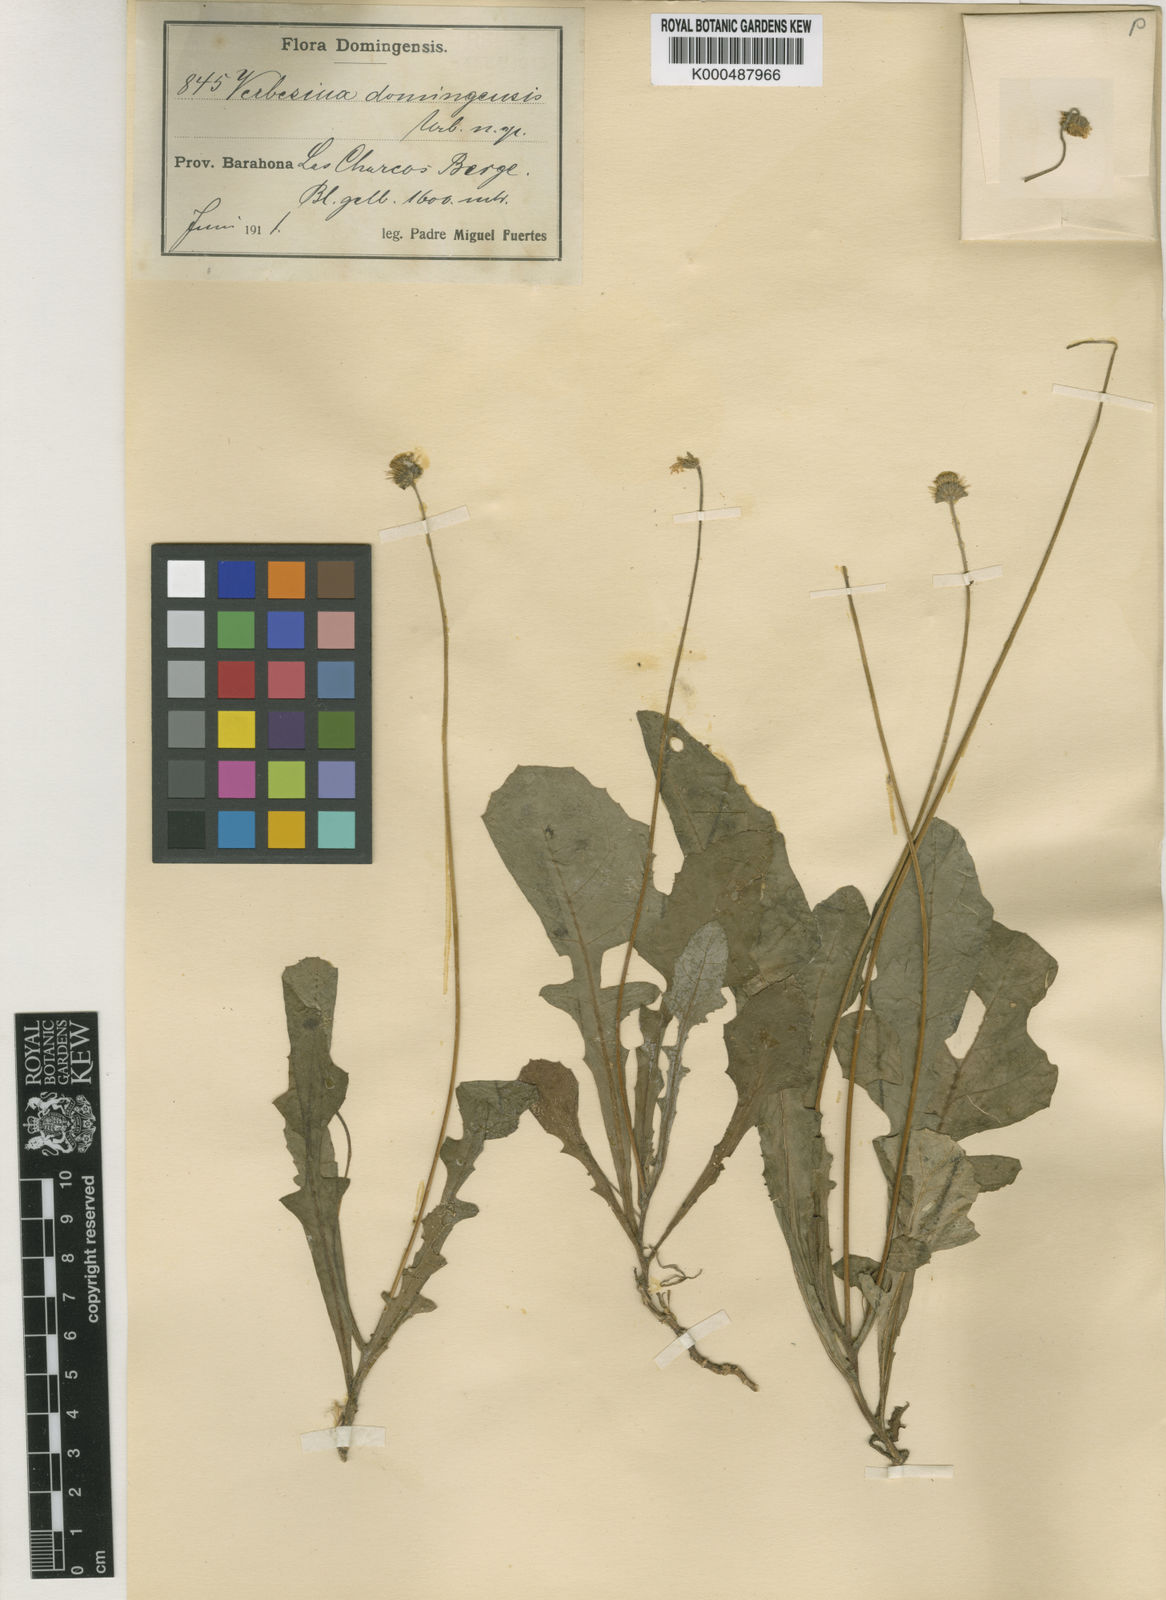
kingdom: Plantae
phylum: Tracheophyta
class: Magnoliopsida
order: Asterales
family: Asteraceae
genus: Verbesina
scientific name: Verbesina domingensis
